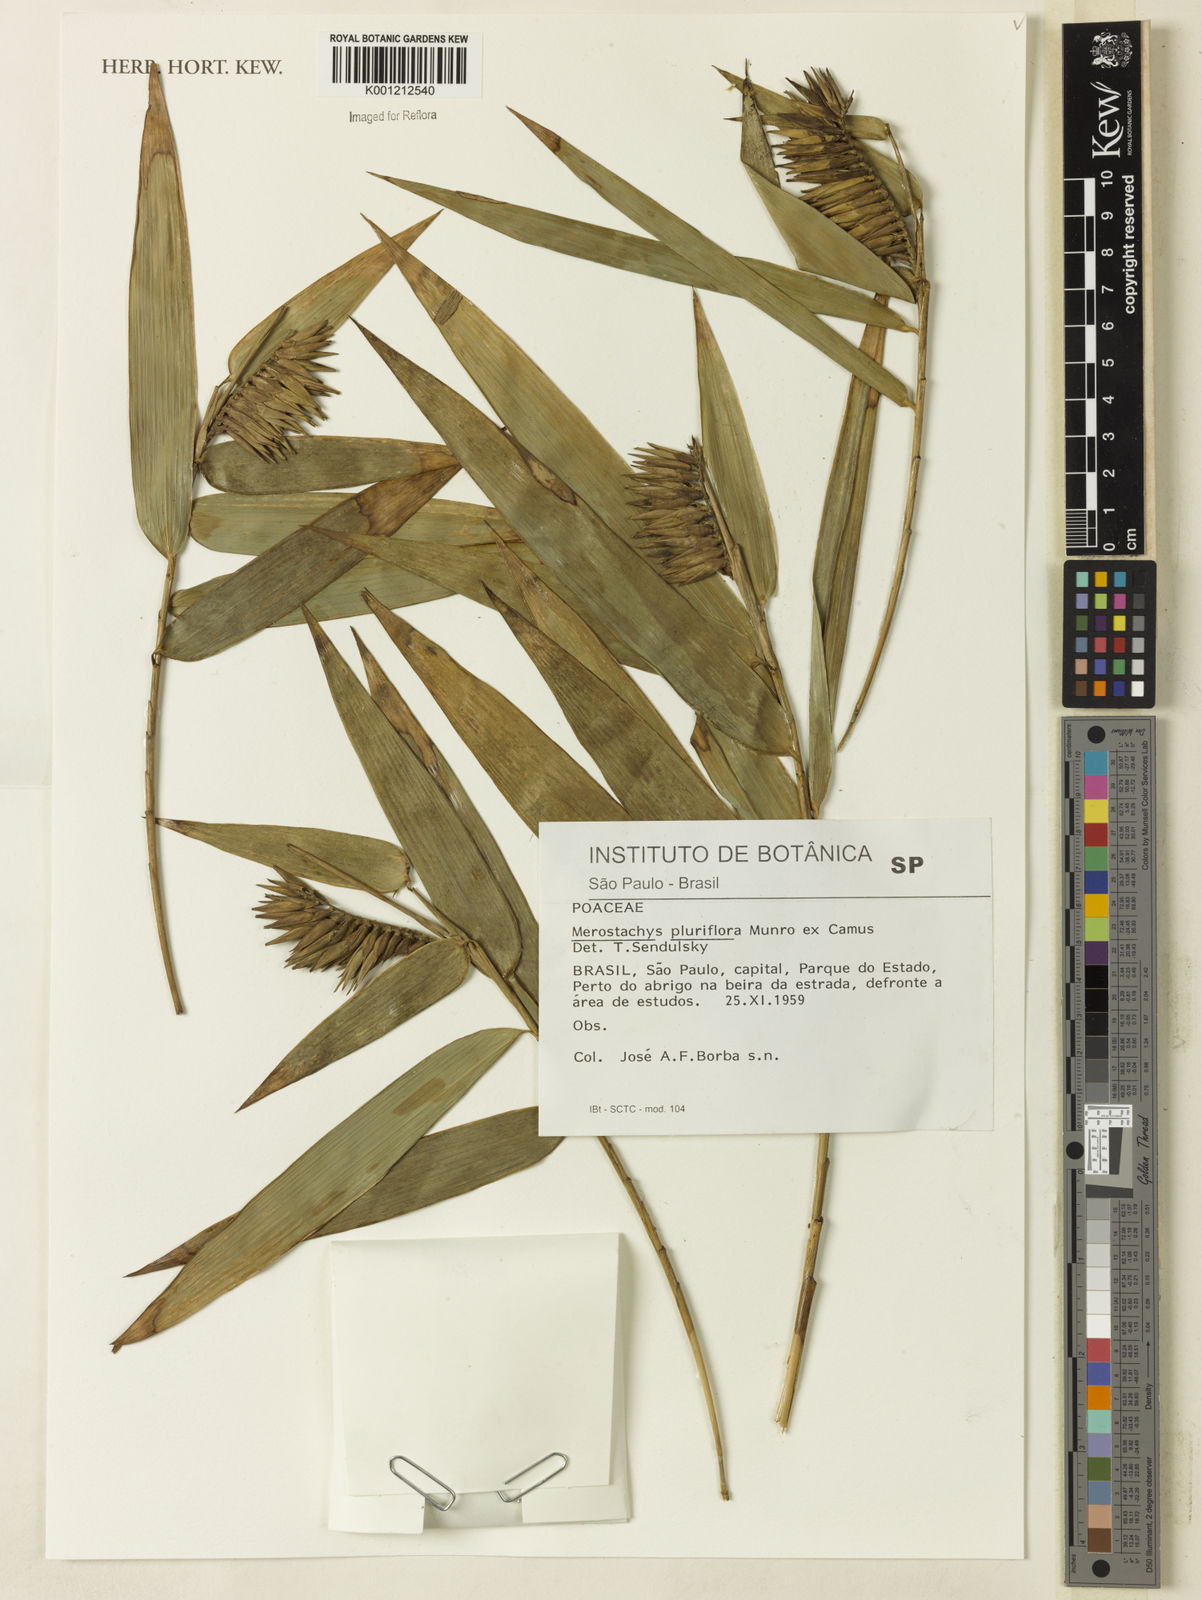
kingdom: Plantae
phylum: Tracheophyta
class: Liliopsida
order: Poales
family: Poaceae
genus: Merostachys
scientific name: Merostachys pluriflora
